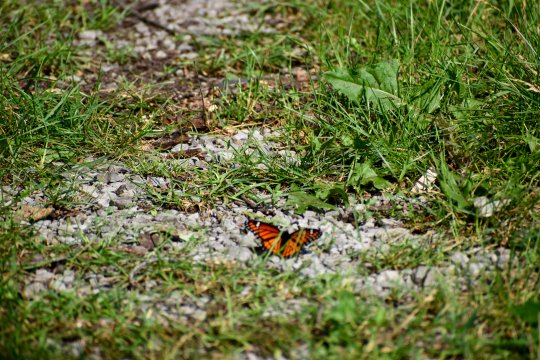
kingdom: Animalia
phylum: Arthropoda
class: Insecta
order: Lepidoptera
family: Nymphalidae
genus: Limenitis
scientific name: Limenitis archippus
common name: Viceroy
